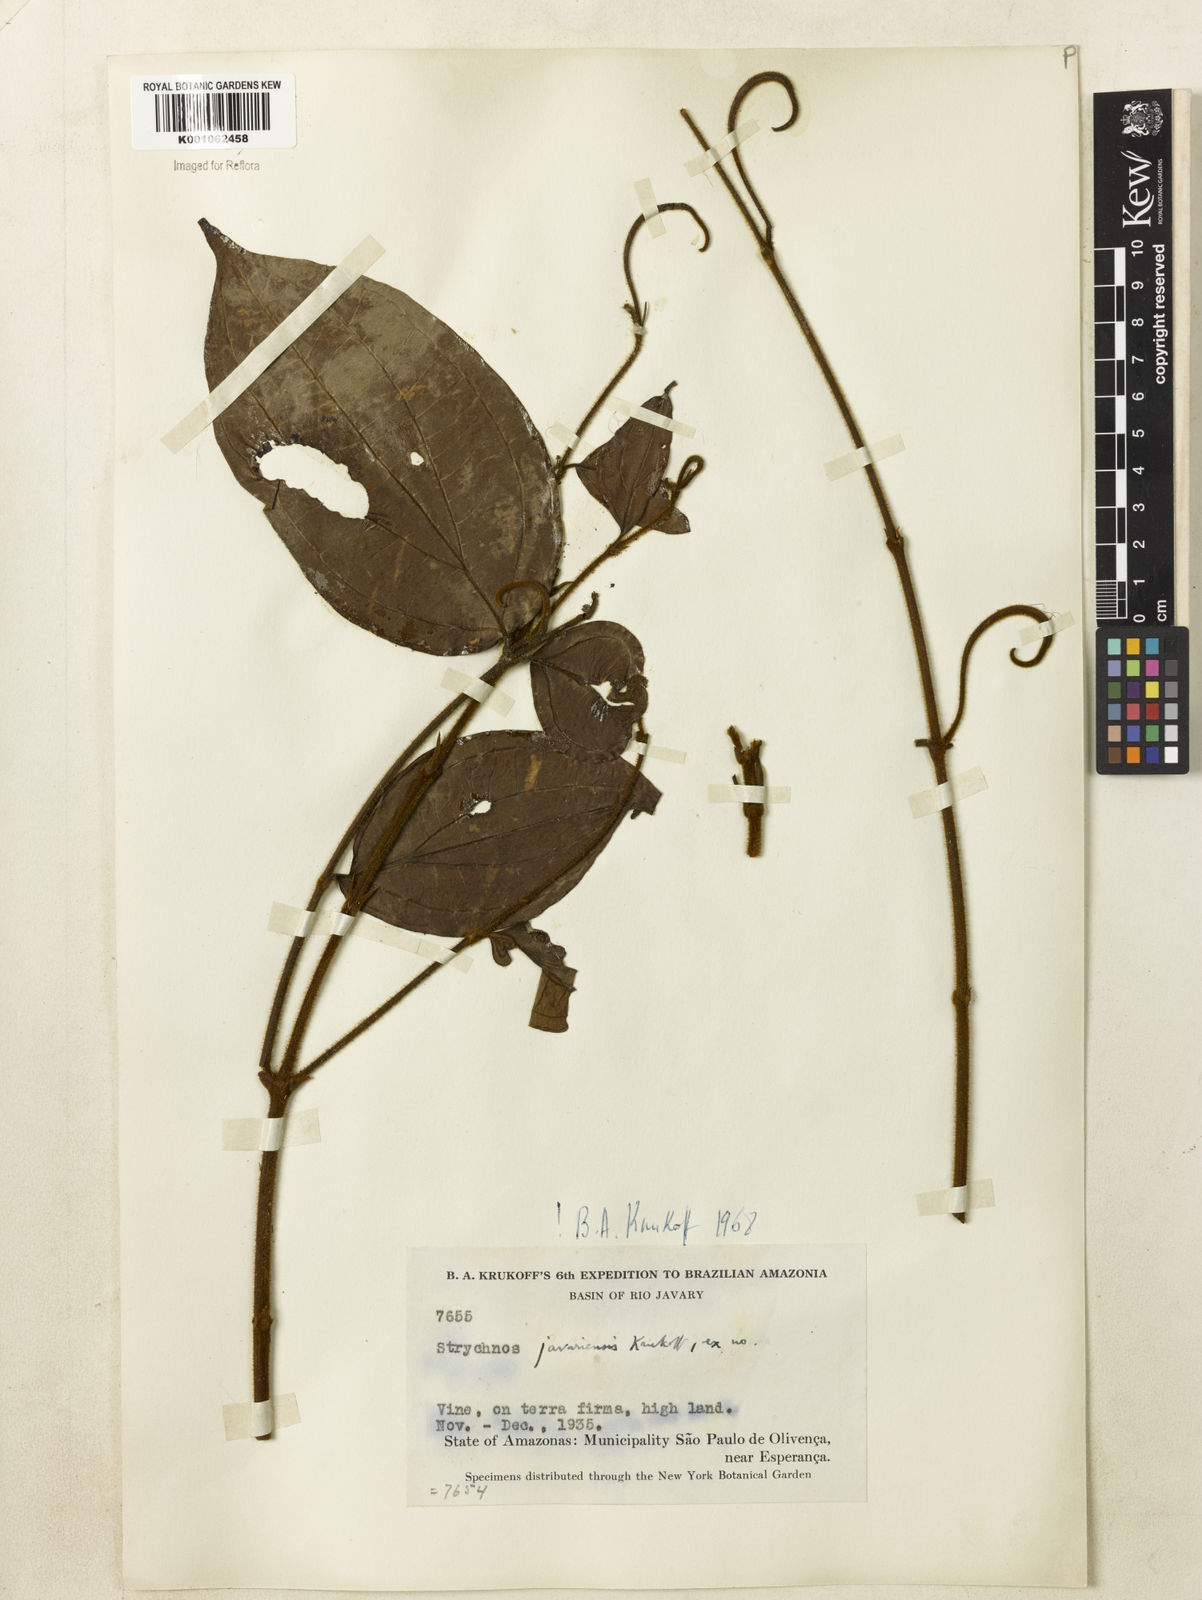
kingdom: Plantae
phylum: Tracheophyta
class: Magnoliopsida
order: Gentianales
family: Loganiaceae
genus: Strychnos
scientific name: Strychnos javariensis
